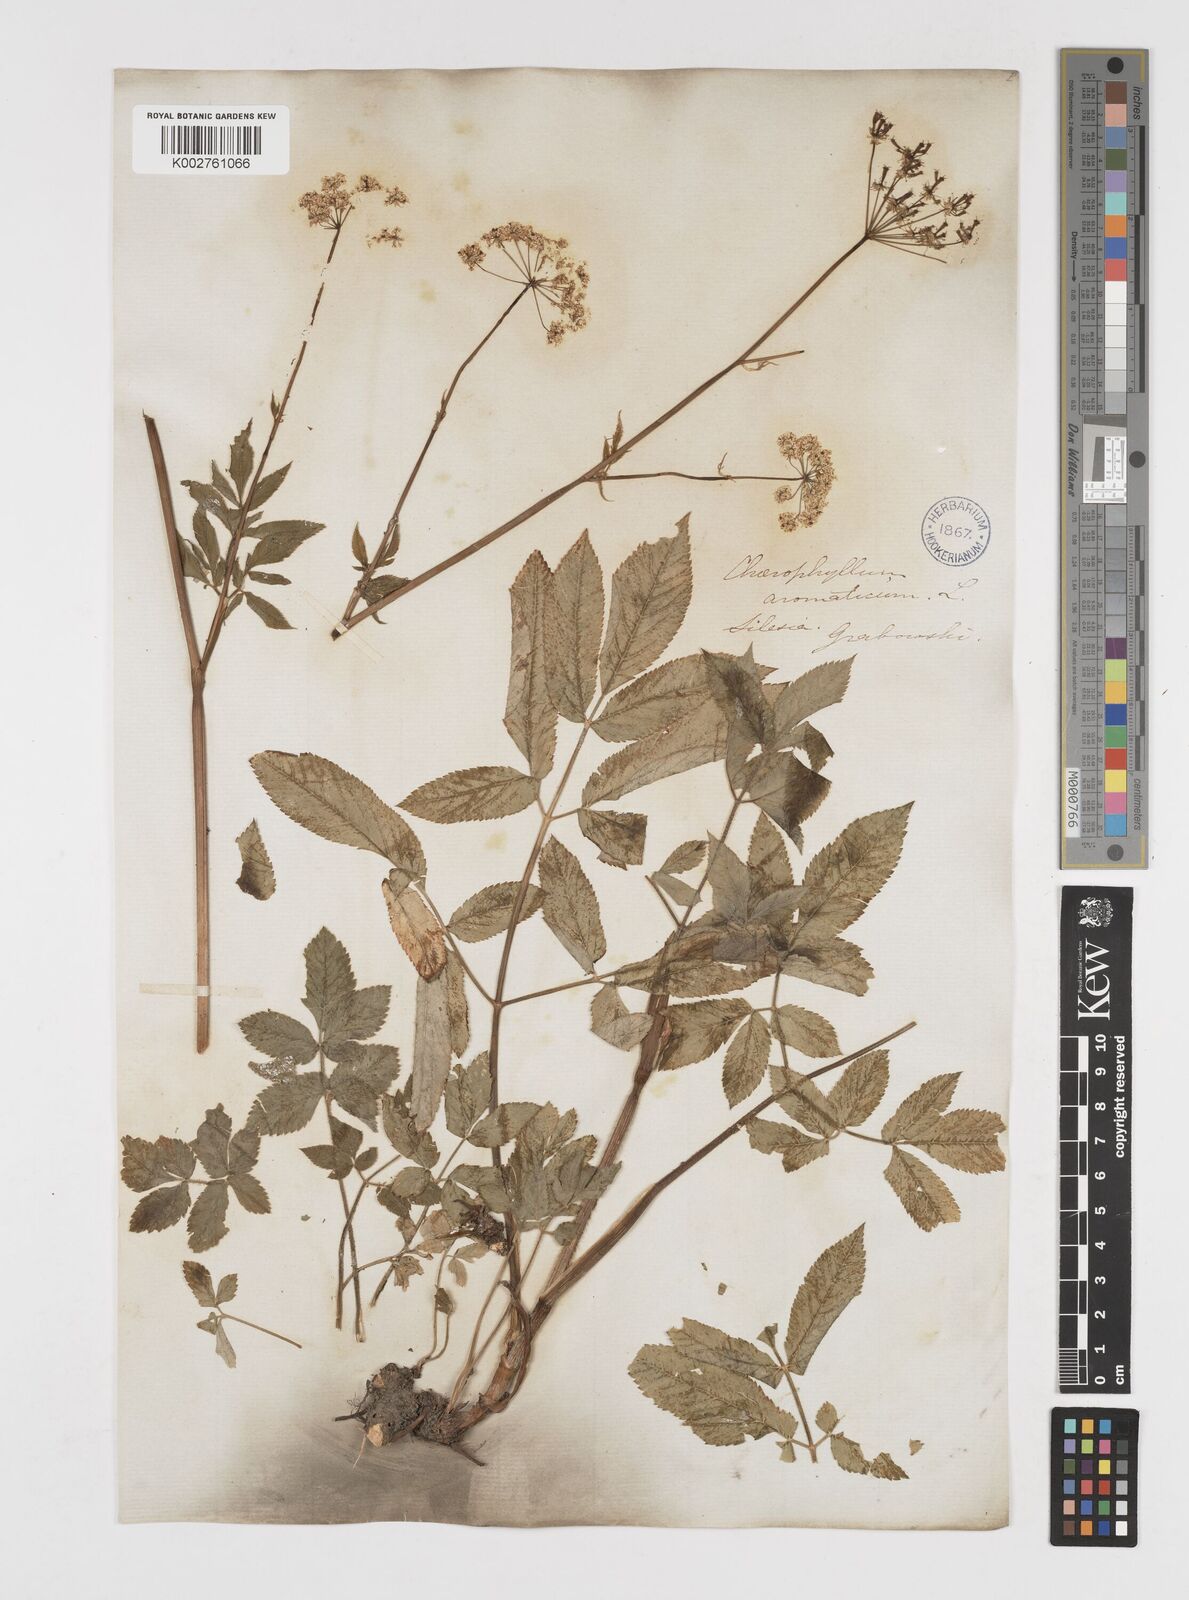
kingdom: Plantae
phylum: Tracheophyta
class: Magnoliopsida
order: Apiales
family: Apiaceae
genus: Chaerophyllum
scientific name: Chaerophyllum aromaticum
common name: Broadleaf chervil
